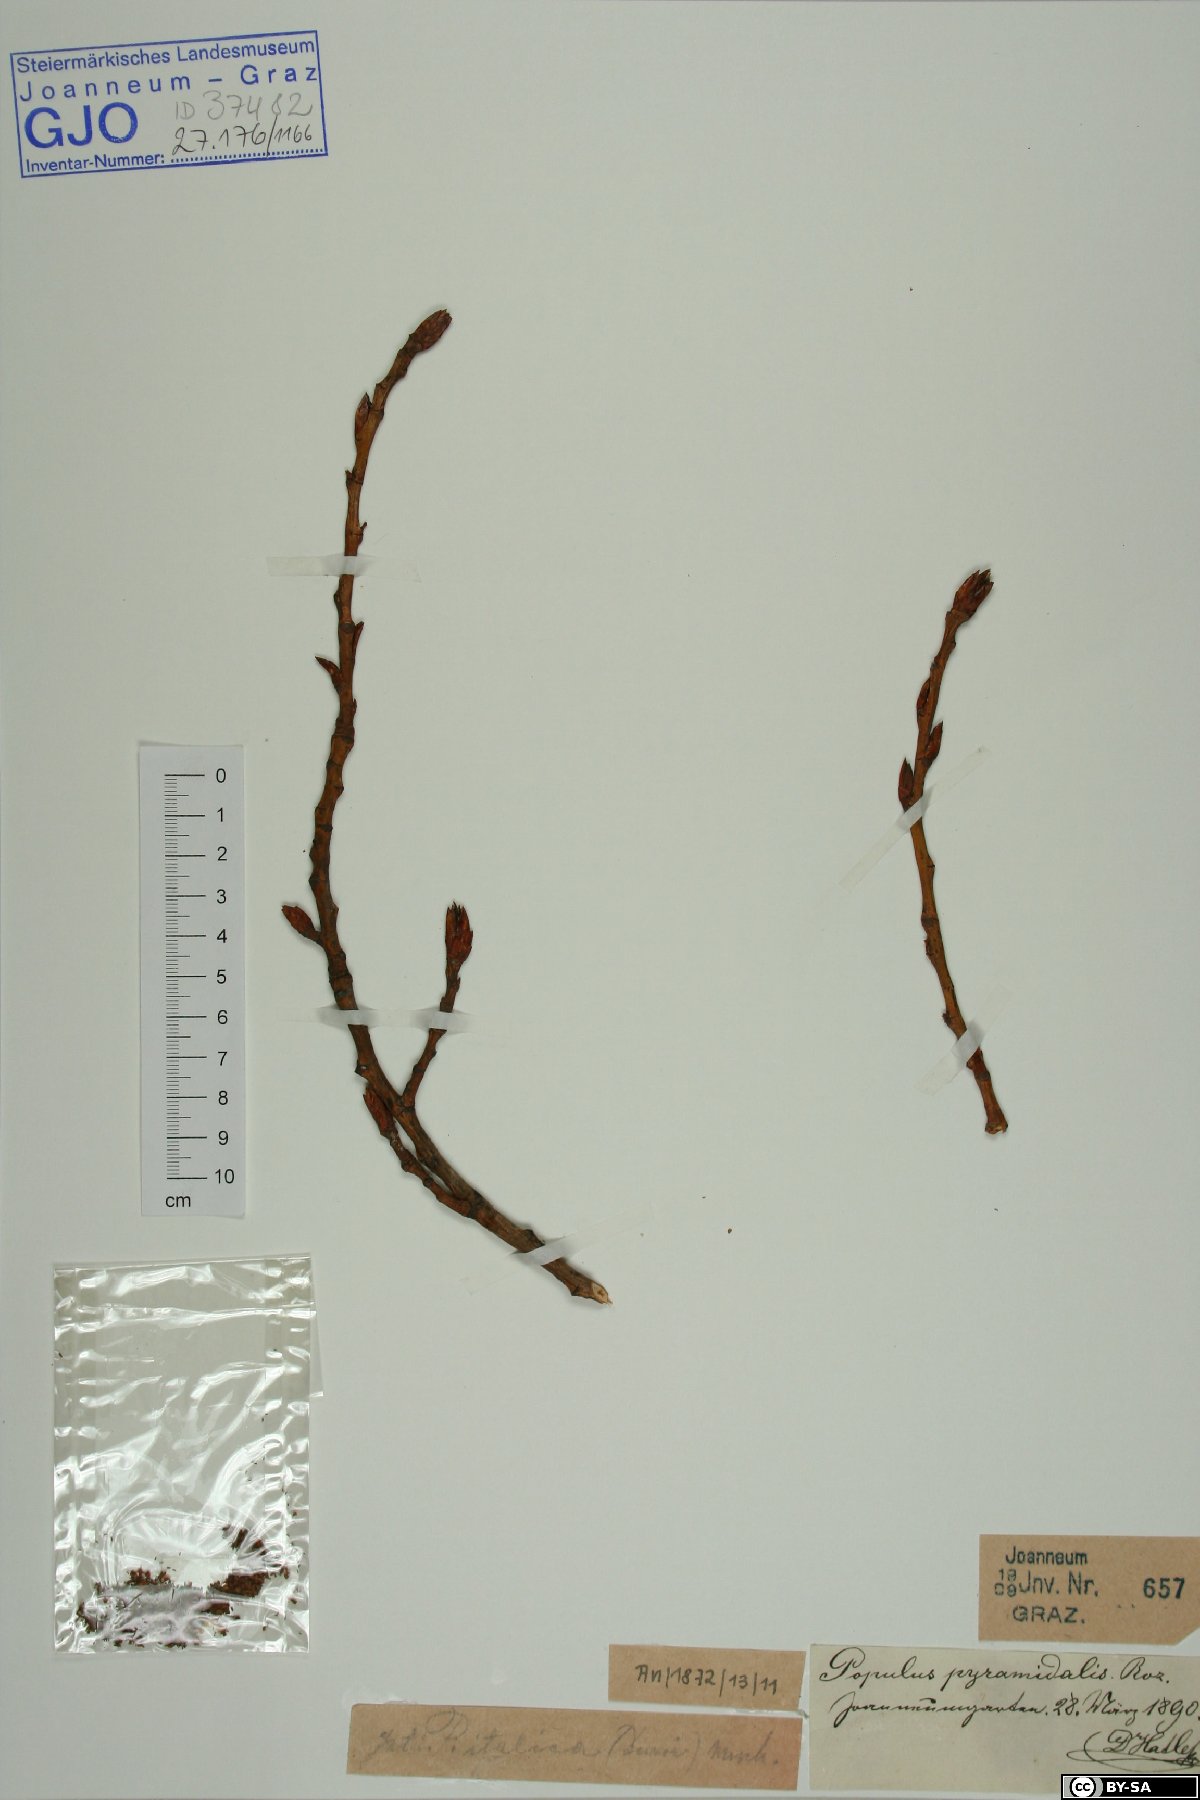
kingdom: Plantae
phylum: Tracheophyta
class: Magnoliopsida
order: Malpighiales
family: Salicaceae
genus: Populus
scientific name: Populus nigra
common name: Black poplar
